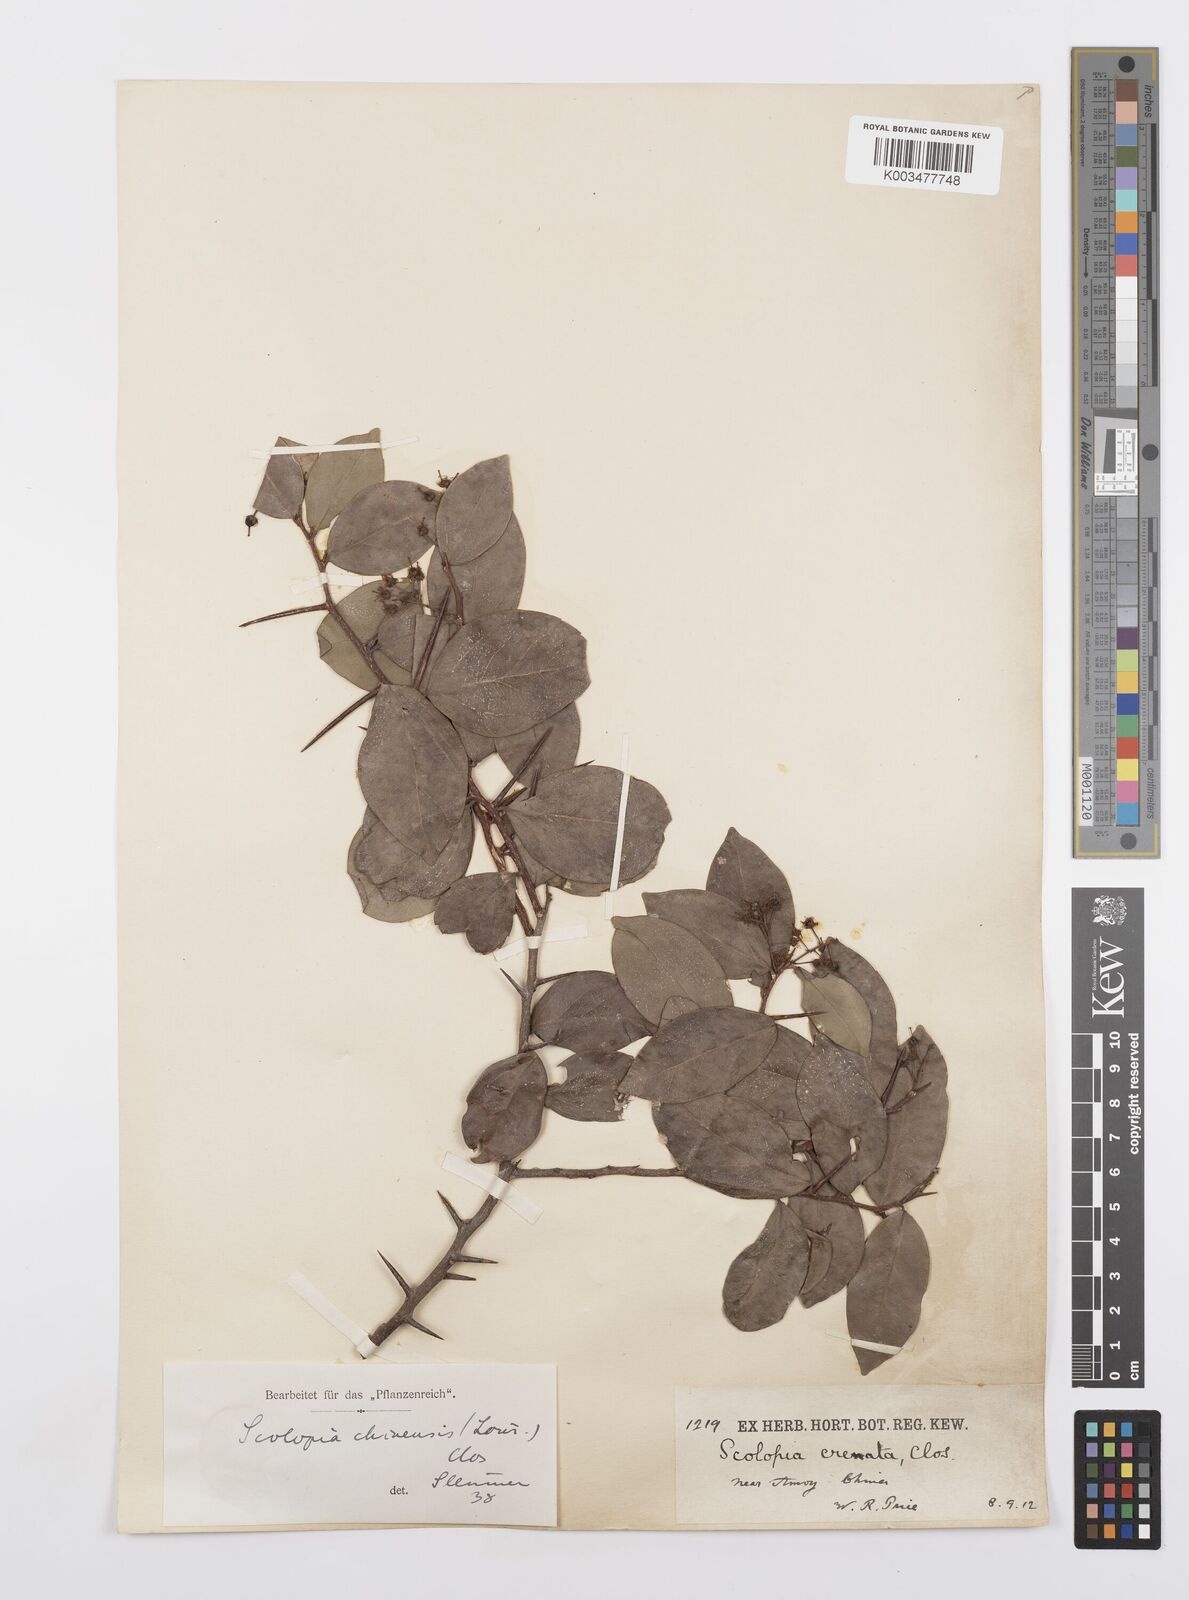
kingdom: Plantae
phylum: Tracheophyta
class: Magnoliopsida
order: Malpighiales
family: Salicaceae
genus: Scolopia
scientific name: Scolopia chinensis
